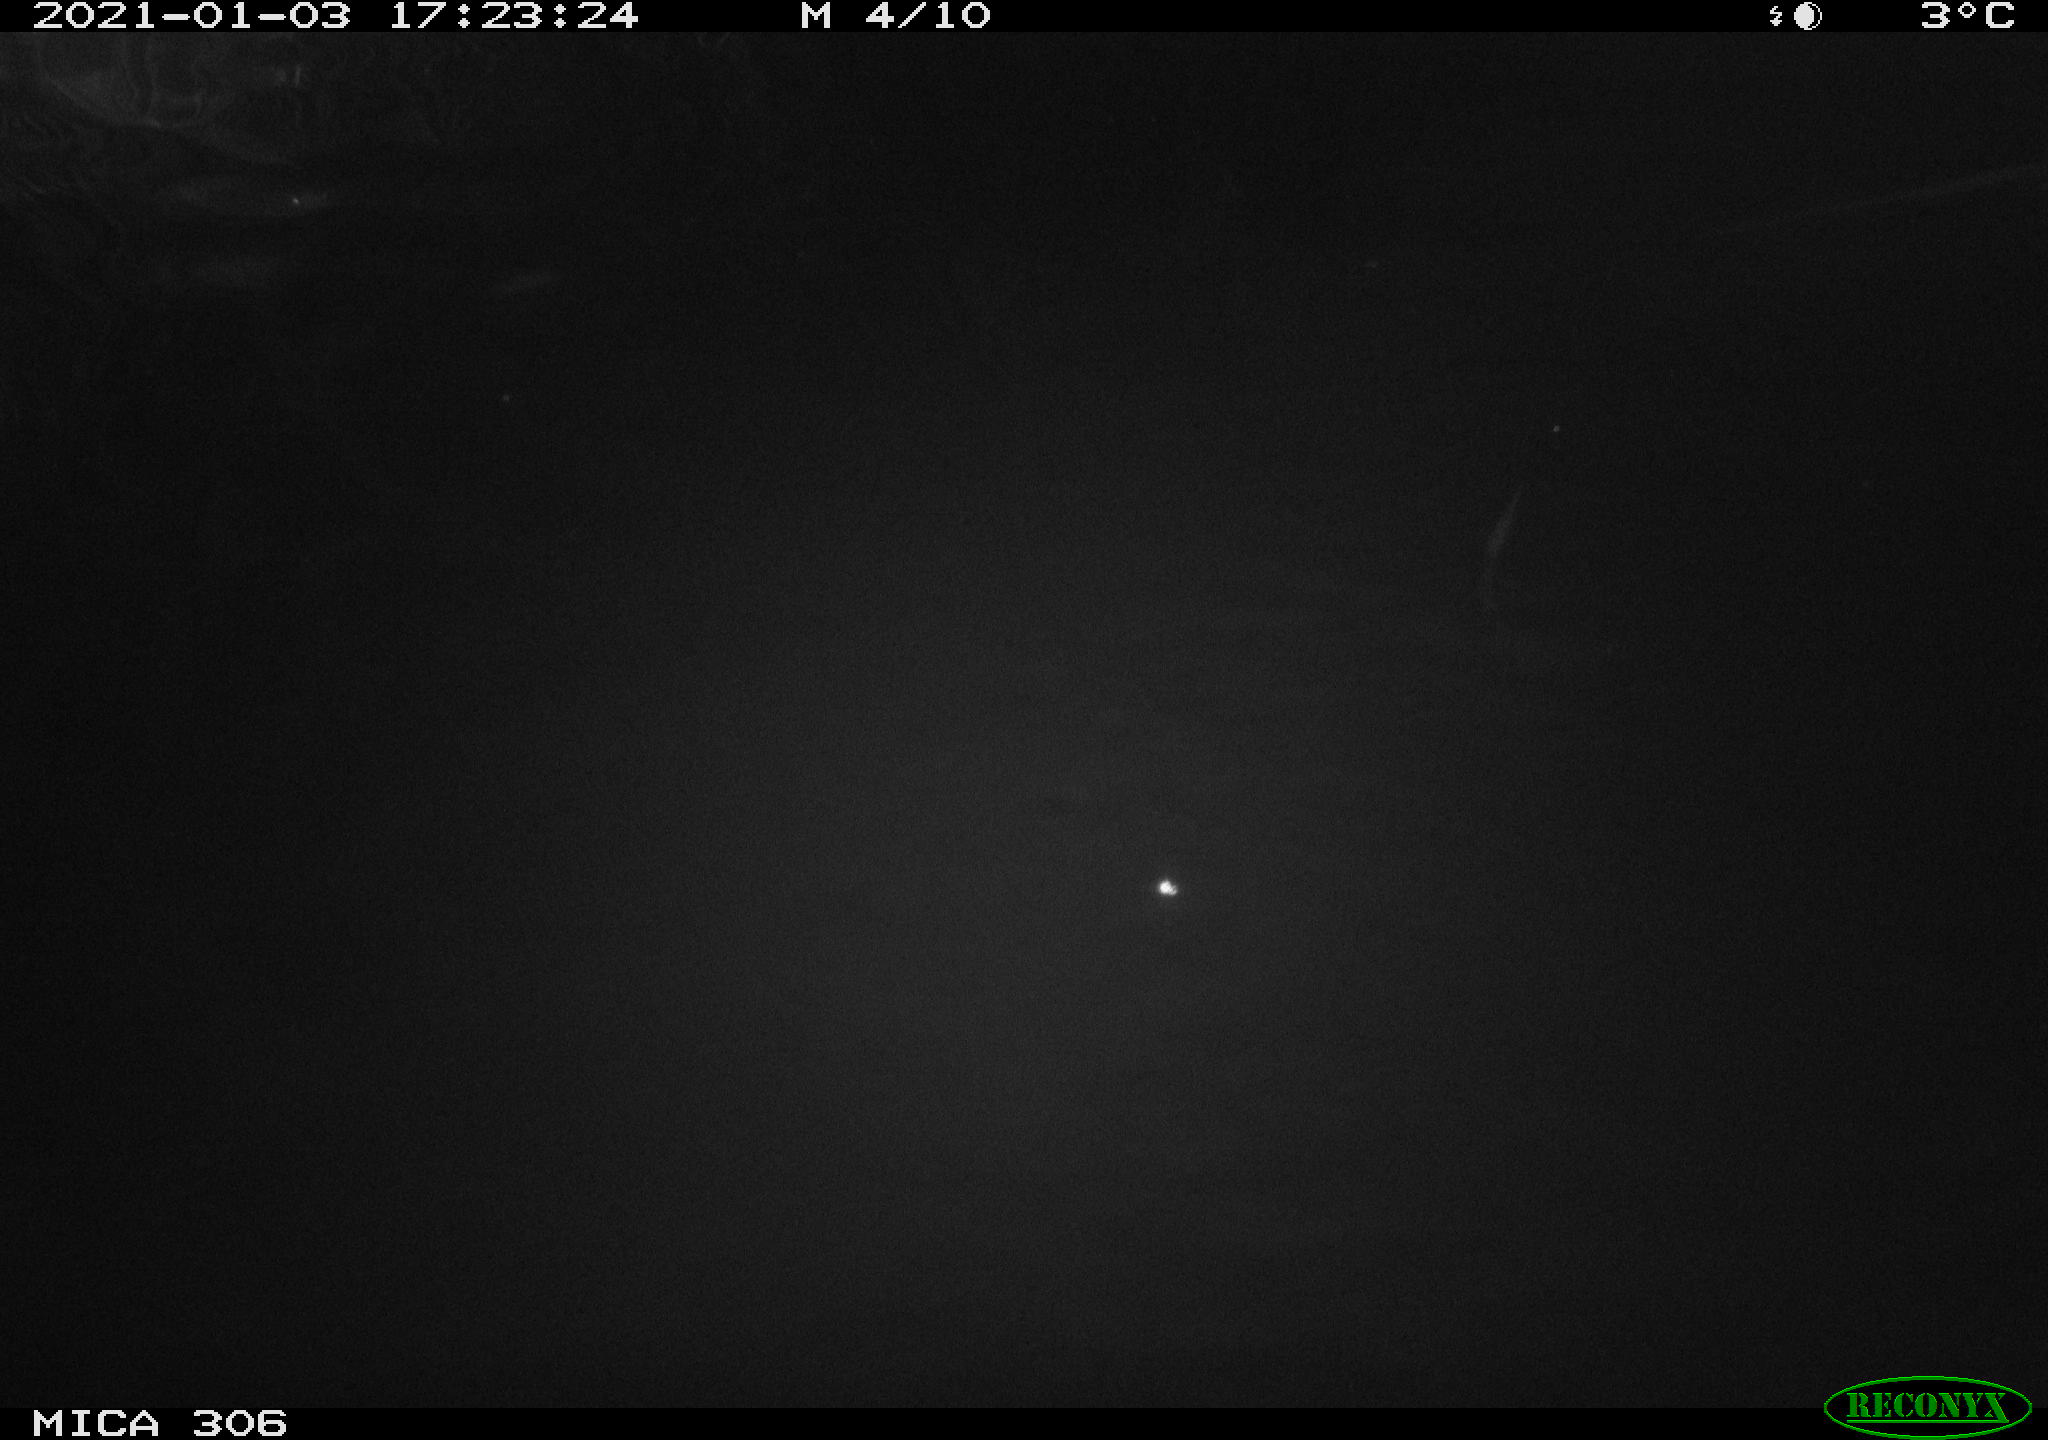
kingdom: Animalia
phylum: Chordata
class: Aves
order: Gruiformes
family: Rallidae
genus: Gallinula
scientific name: Gallinula chloropus
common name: Common moorhen
